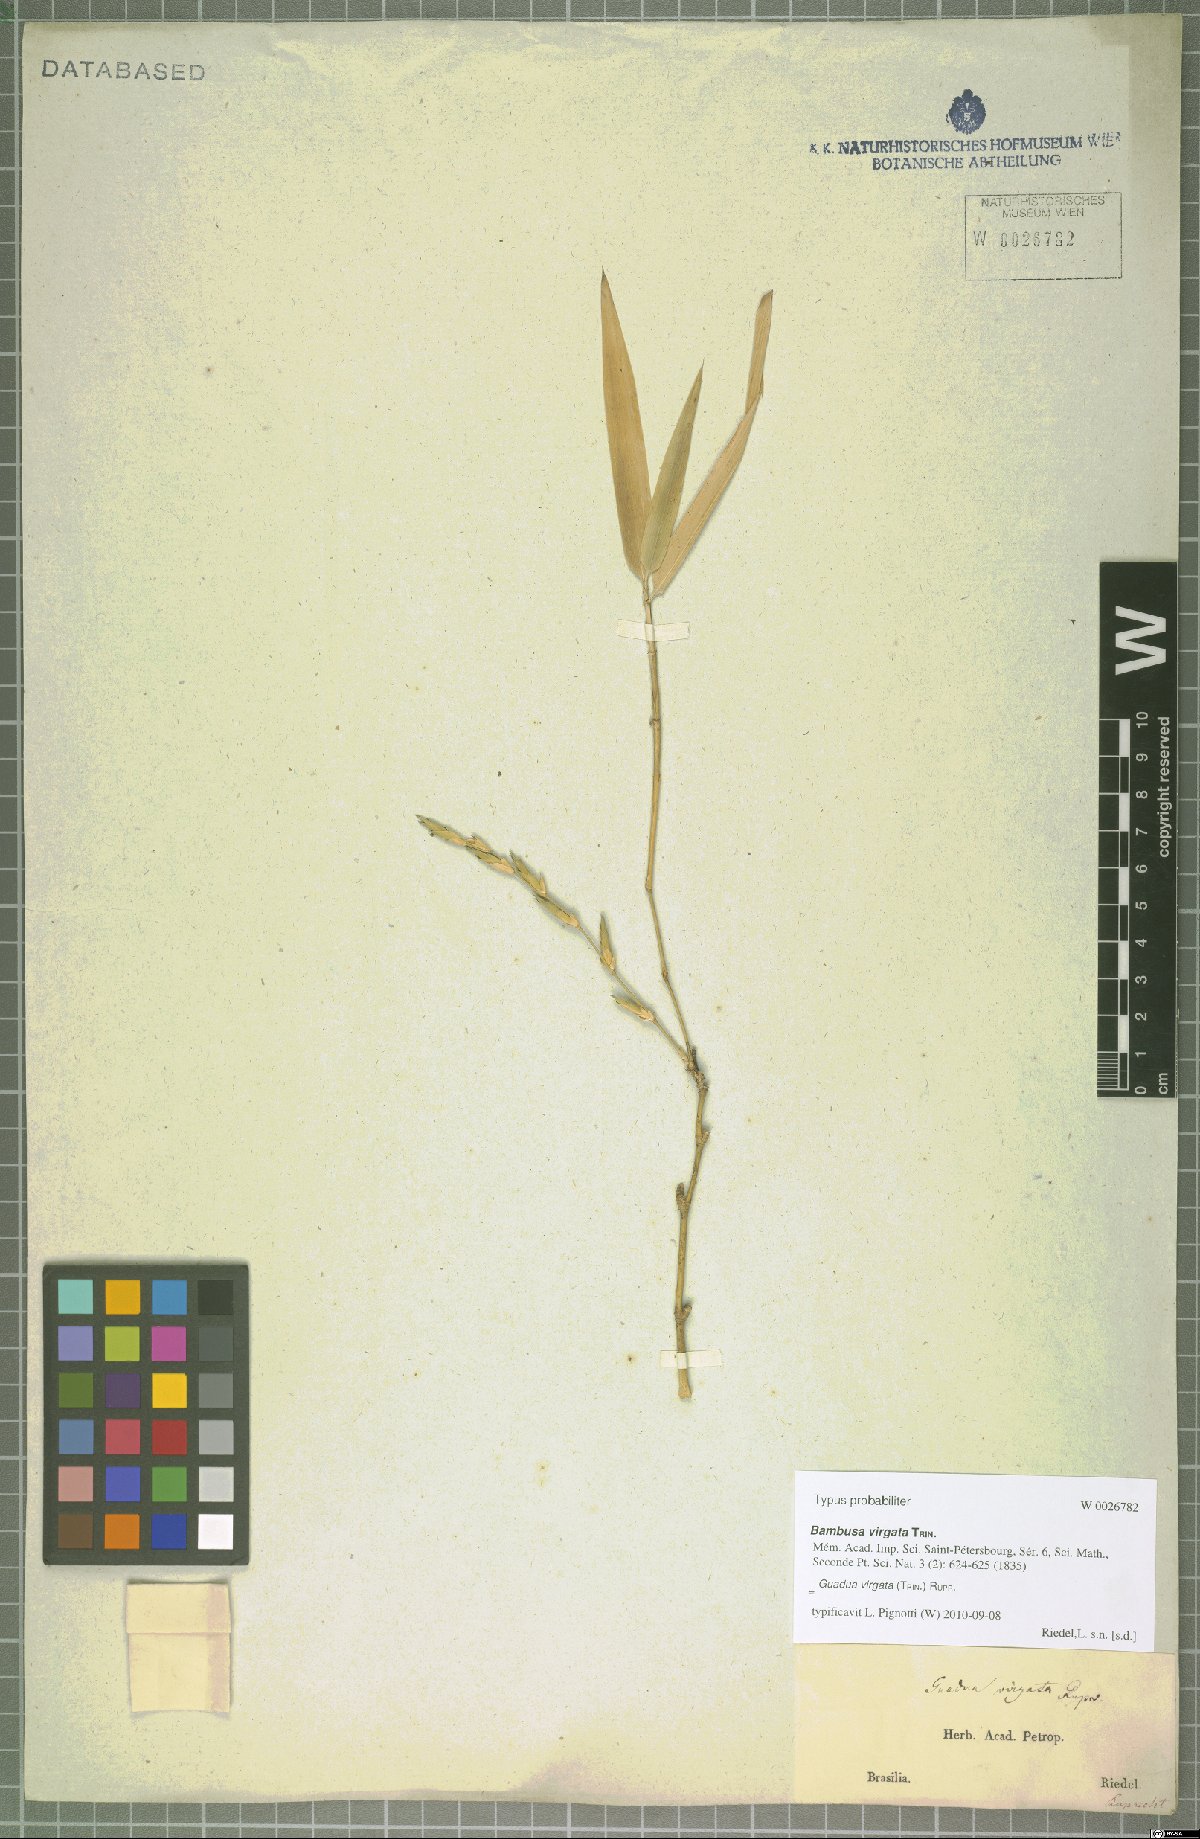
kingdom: Plantae
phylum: Tracheophyta
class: Liliopsida
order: Poales
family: Poaceae
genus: Guadua
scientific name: Guadua virgata
